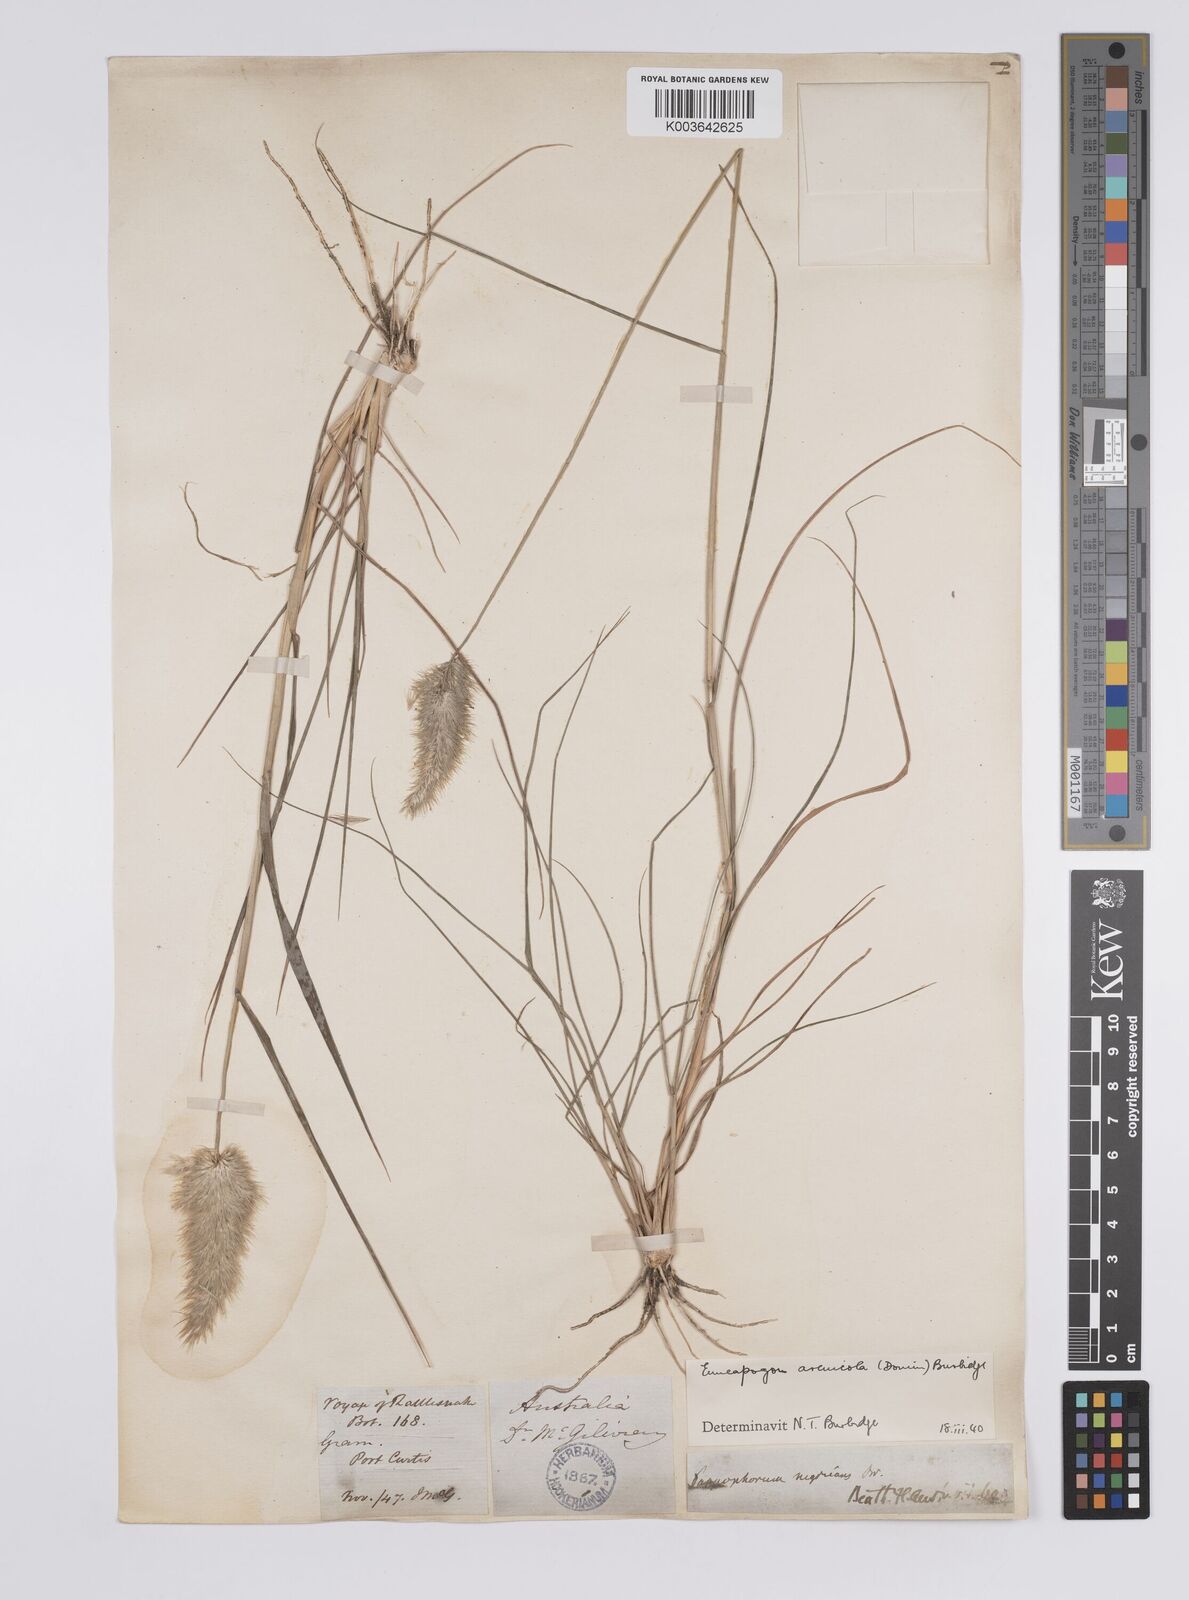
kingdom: Plantae
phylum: Tracheophyta
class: Liliopsida
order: Poales
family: Poaceae
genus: Enneapogon
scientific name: Enneapogon nigricans
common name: Pappus grass
